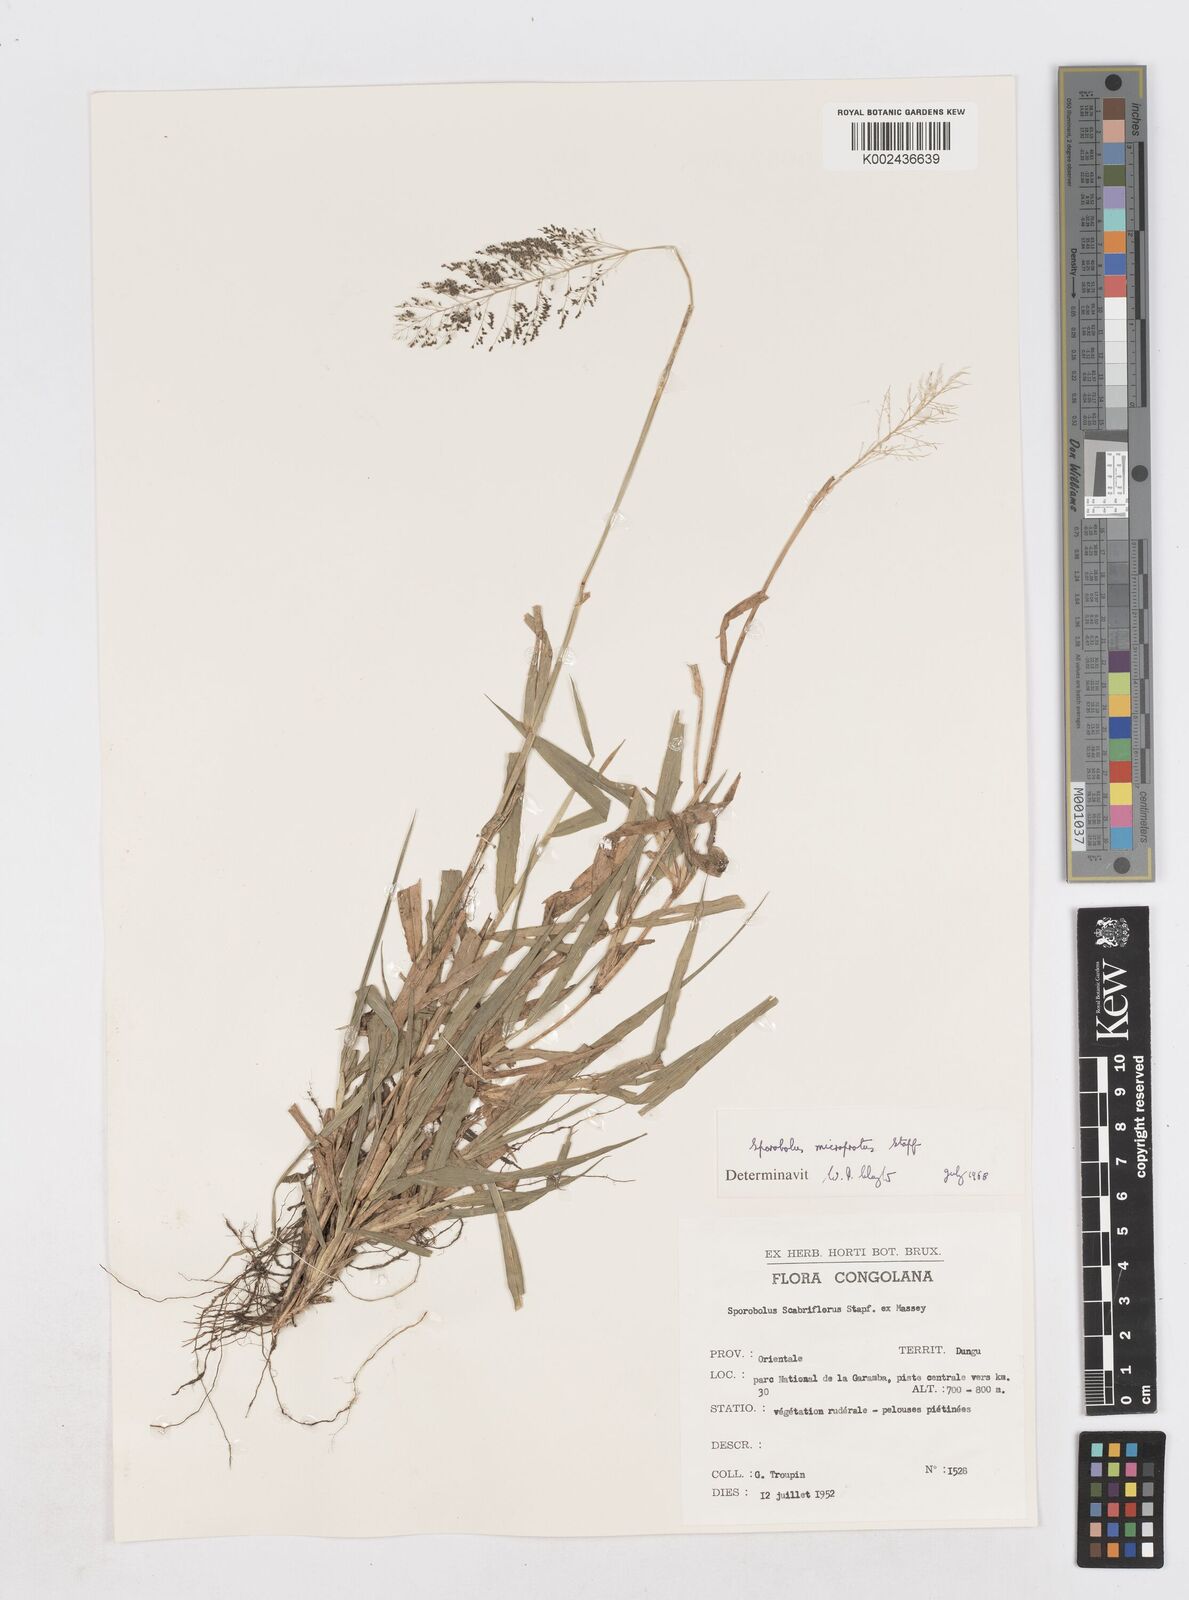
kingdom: Plantae
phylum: Tracheophyta
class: Liliopsida
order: Poales
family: Poaceae
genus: Sporobolus
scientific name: Sporobolus microprotus
